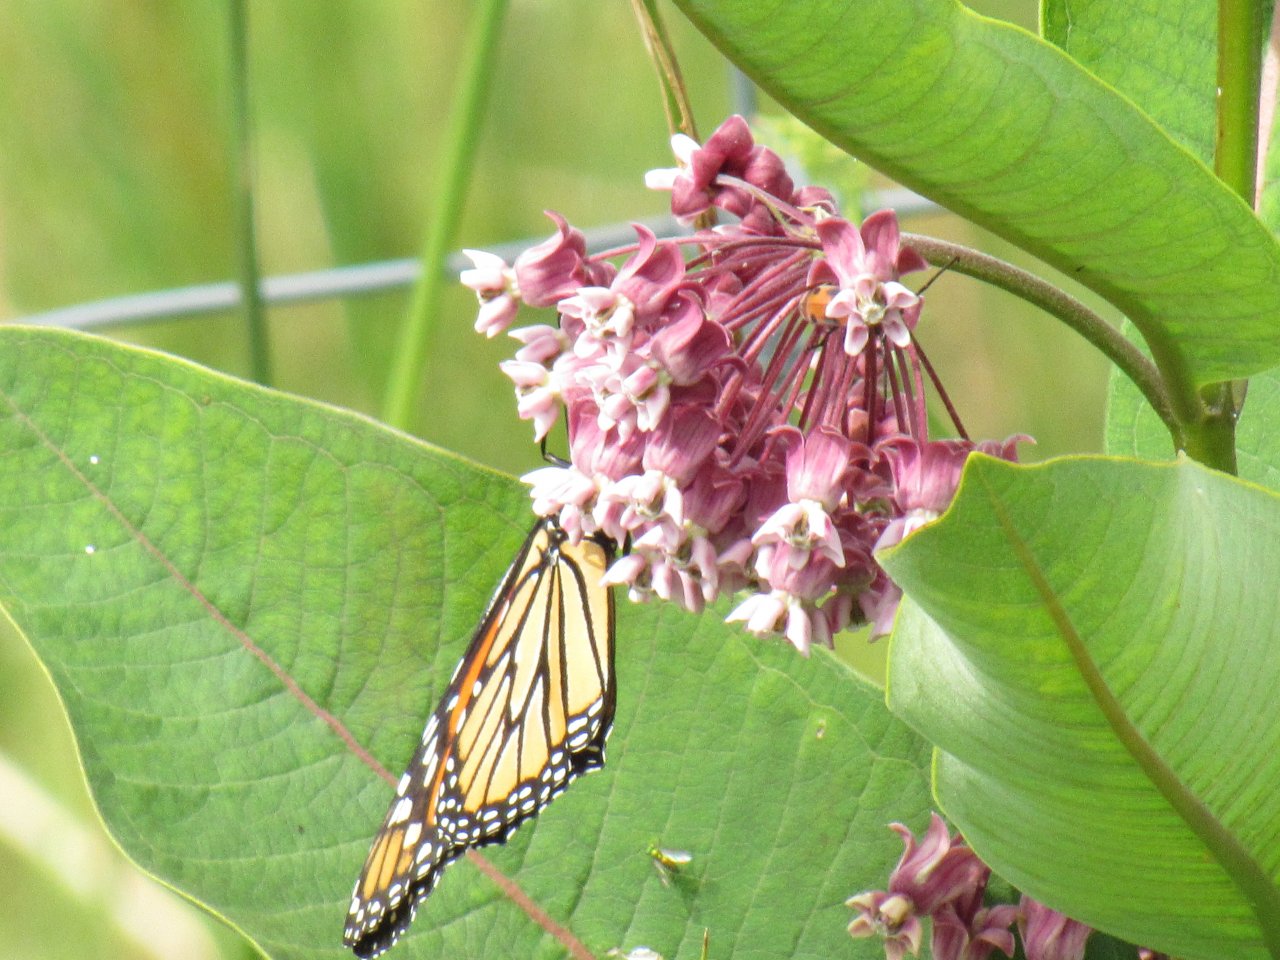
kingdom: Animalia
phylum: Arthropoda
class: Insecta
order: Lepidoptera
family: Nymphalidae
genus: Danaus
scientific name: Danaus plexippus
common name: Monarch
